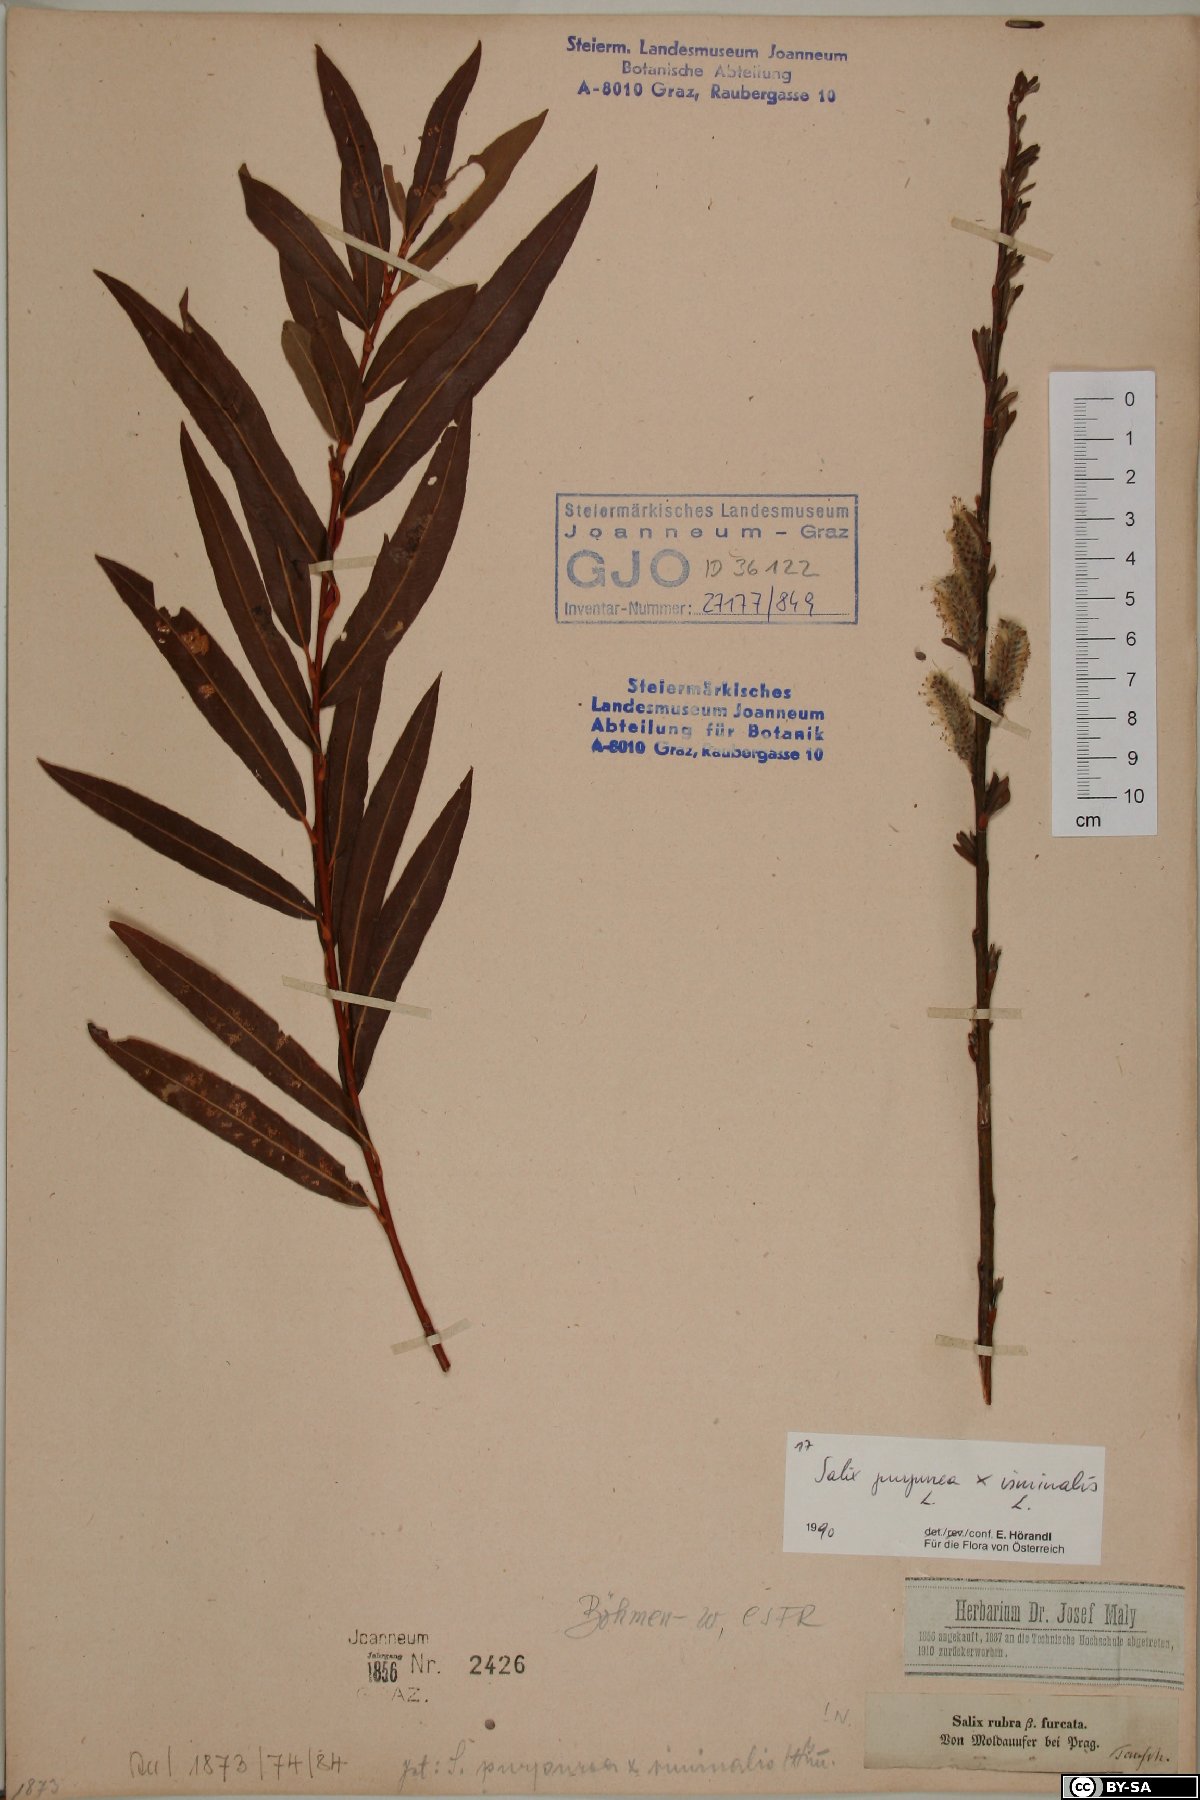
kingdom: Plantae
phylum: Tracheophyta
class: Magnoliopsida
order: Malpighiales
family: Salicaceae
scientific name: Salicaceae
